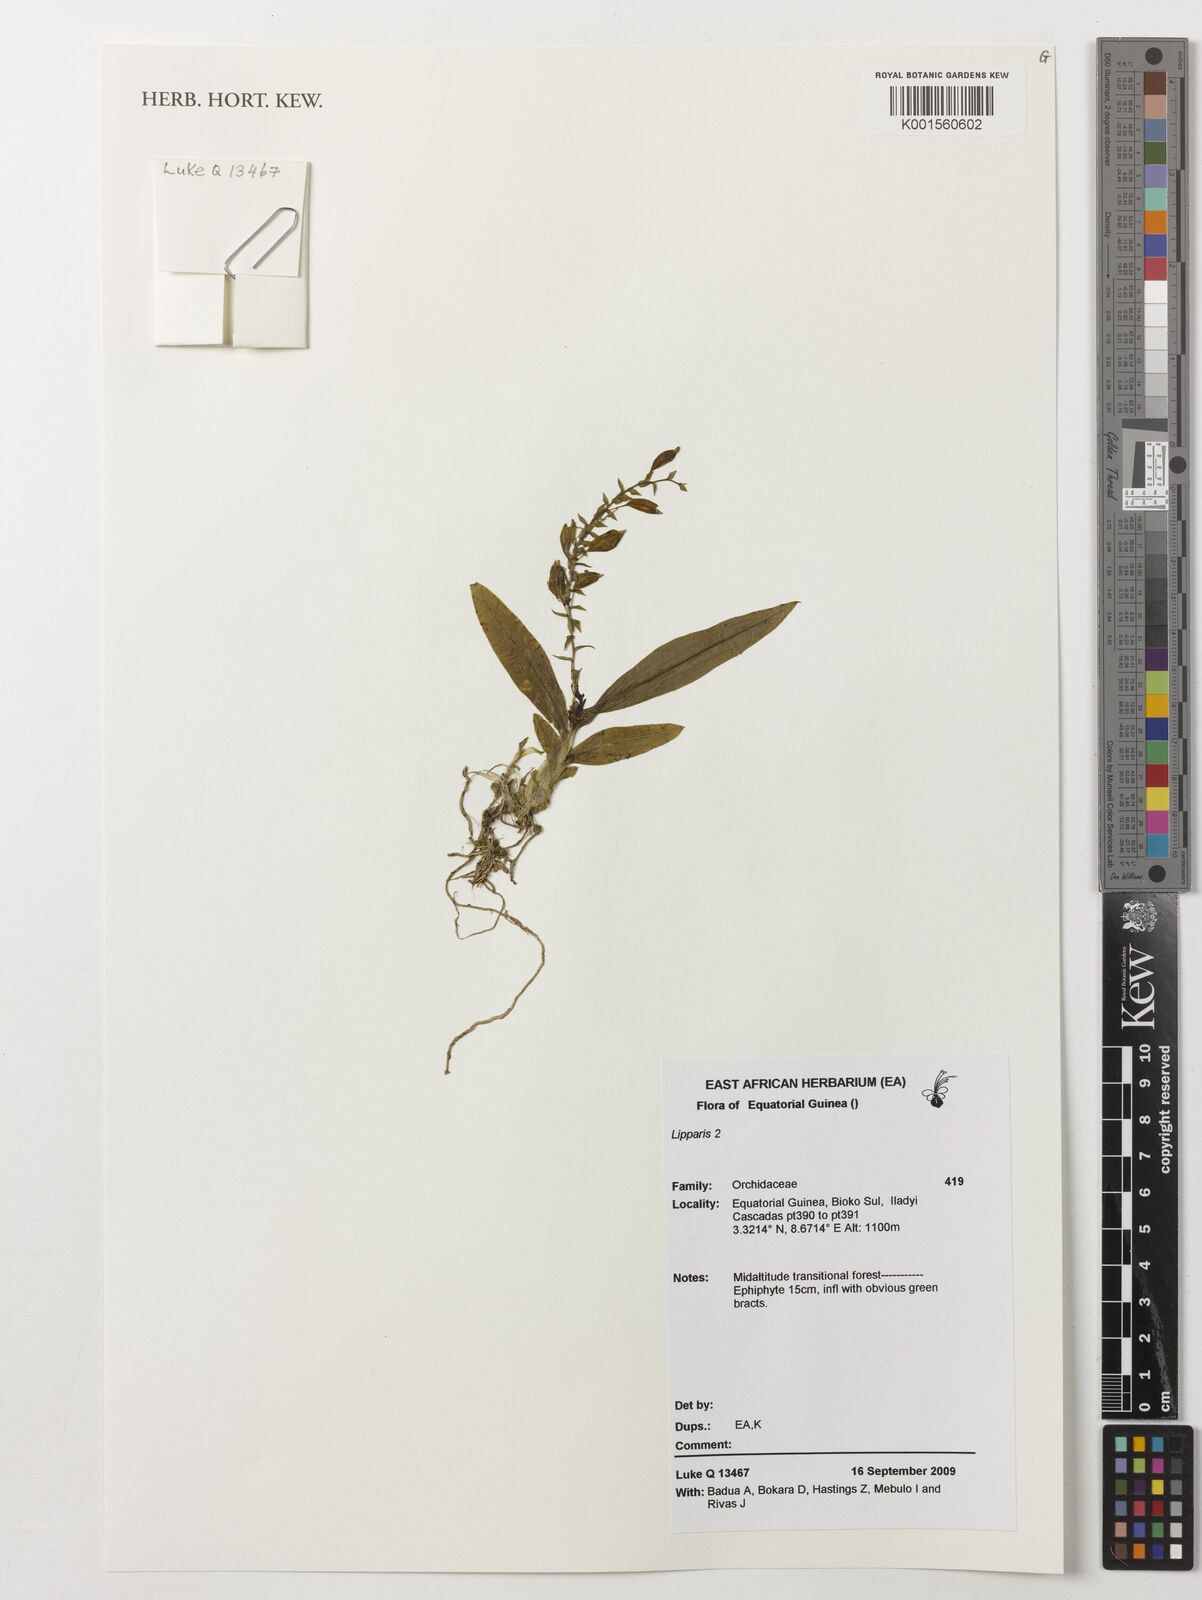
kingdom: Plantae
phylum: Tracheophyta
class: Liliopsida
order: Asparagales
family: Orchidaceae
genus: Liparis
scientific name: Liparis
